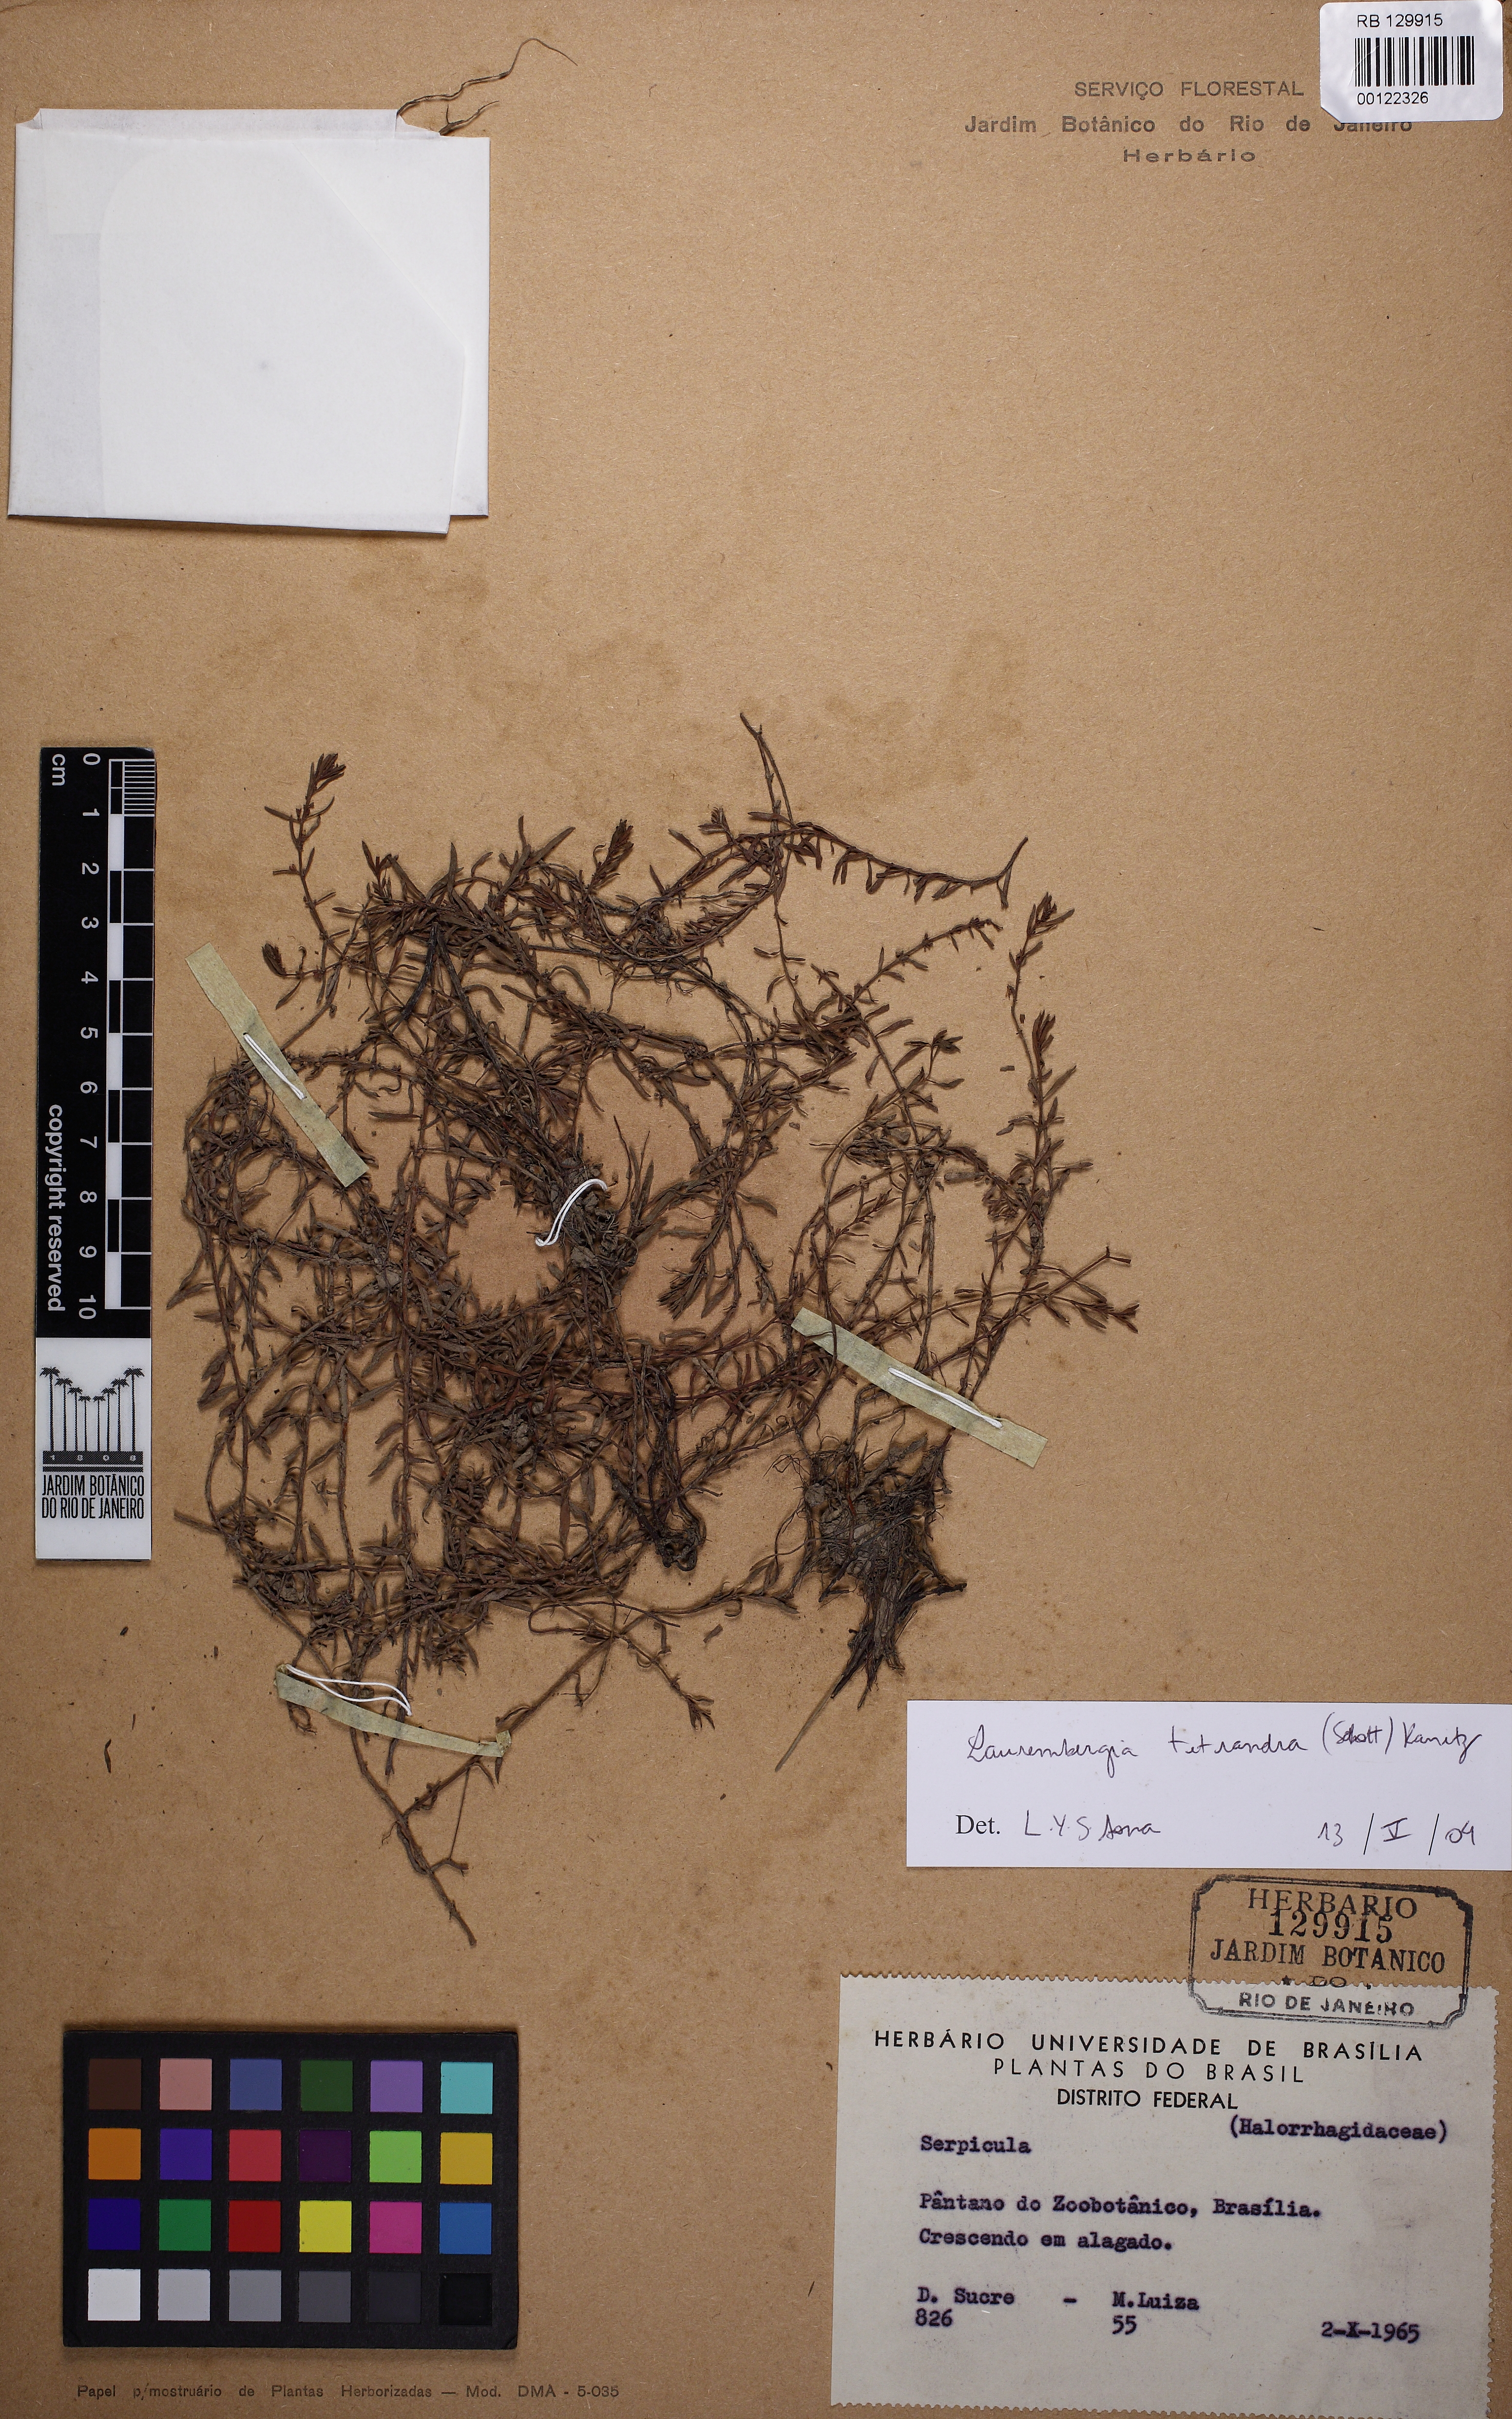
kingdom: Plantae
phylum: Tracheophyta
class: Magnoliopsida
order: Saxifragales
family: Haloragaceae
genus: Laurembergia
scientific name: Laurembergia tetrandra
